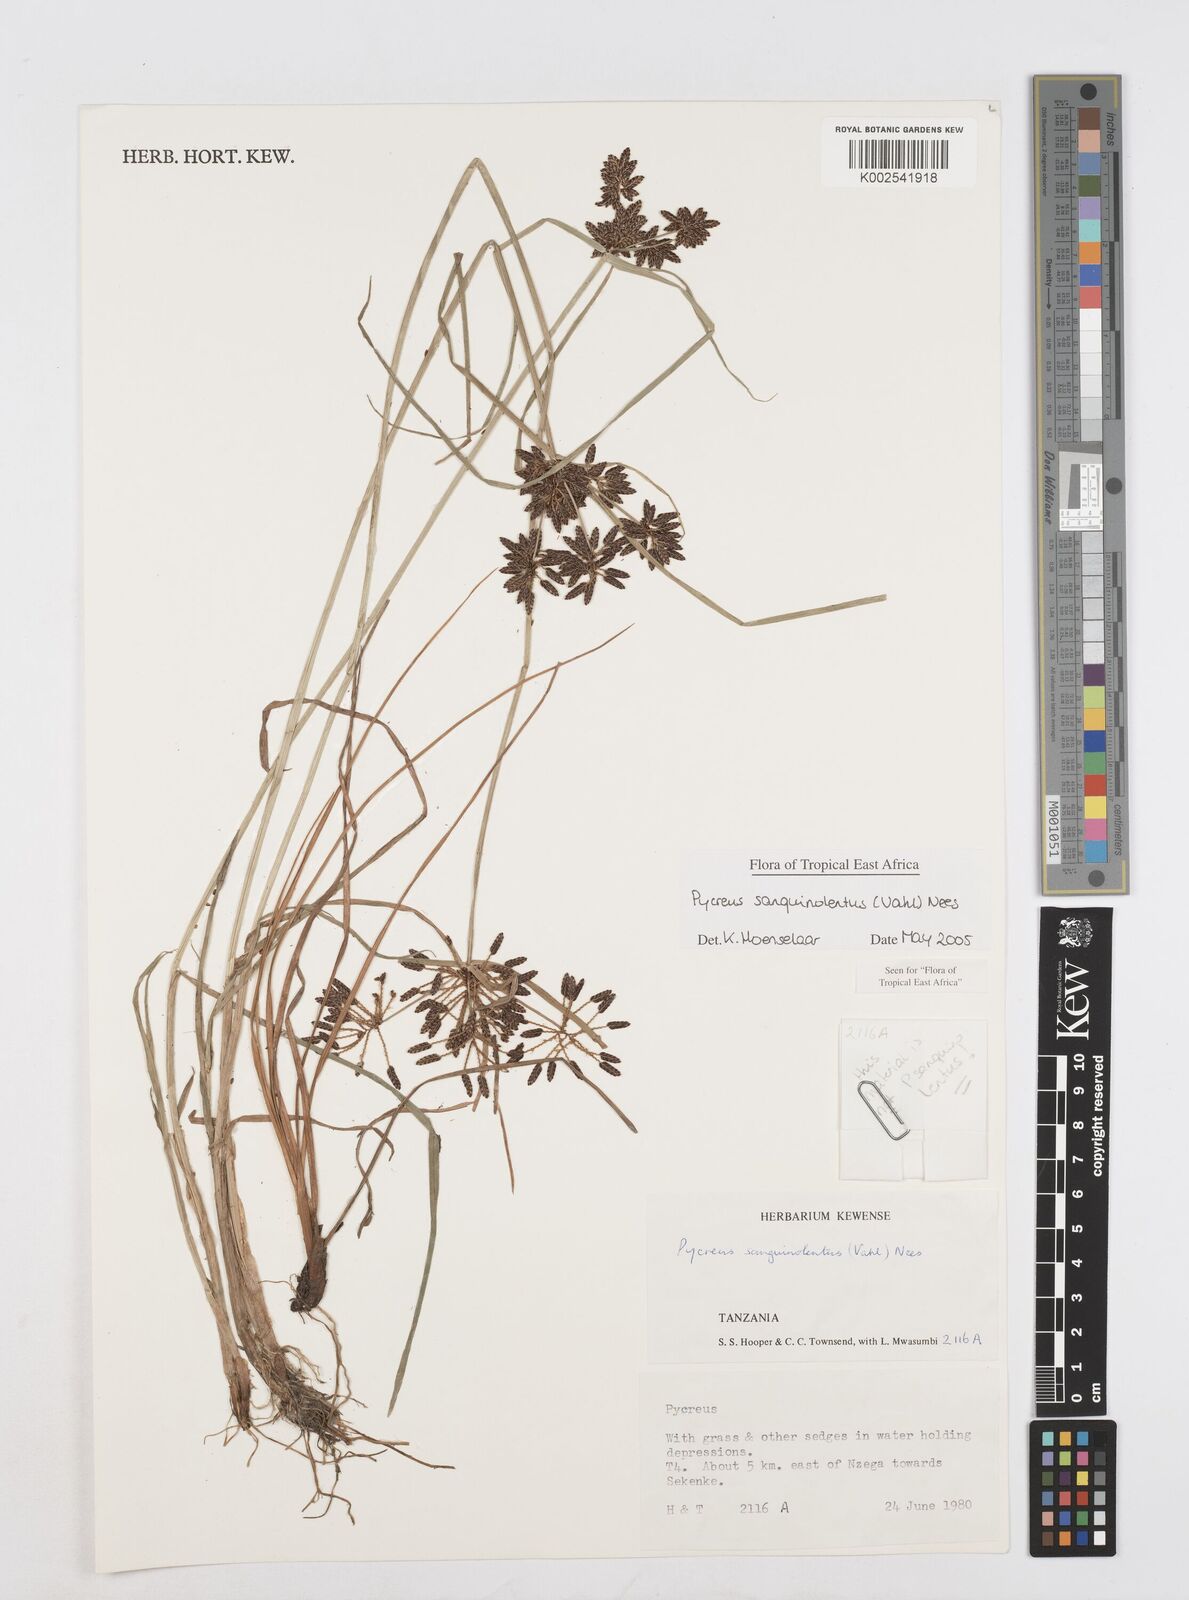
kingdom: Plantae
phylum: Tracheophyta
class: Liliopsida
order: Poales
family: Cyperaceae
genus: Cyperus
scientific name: Cyperus sanguinolentus
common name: Purpleglume flatsedge
